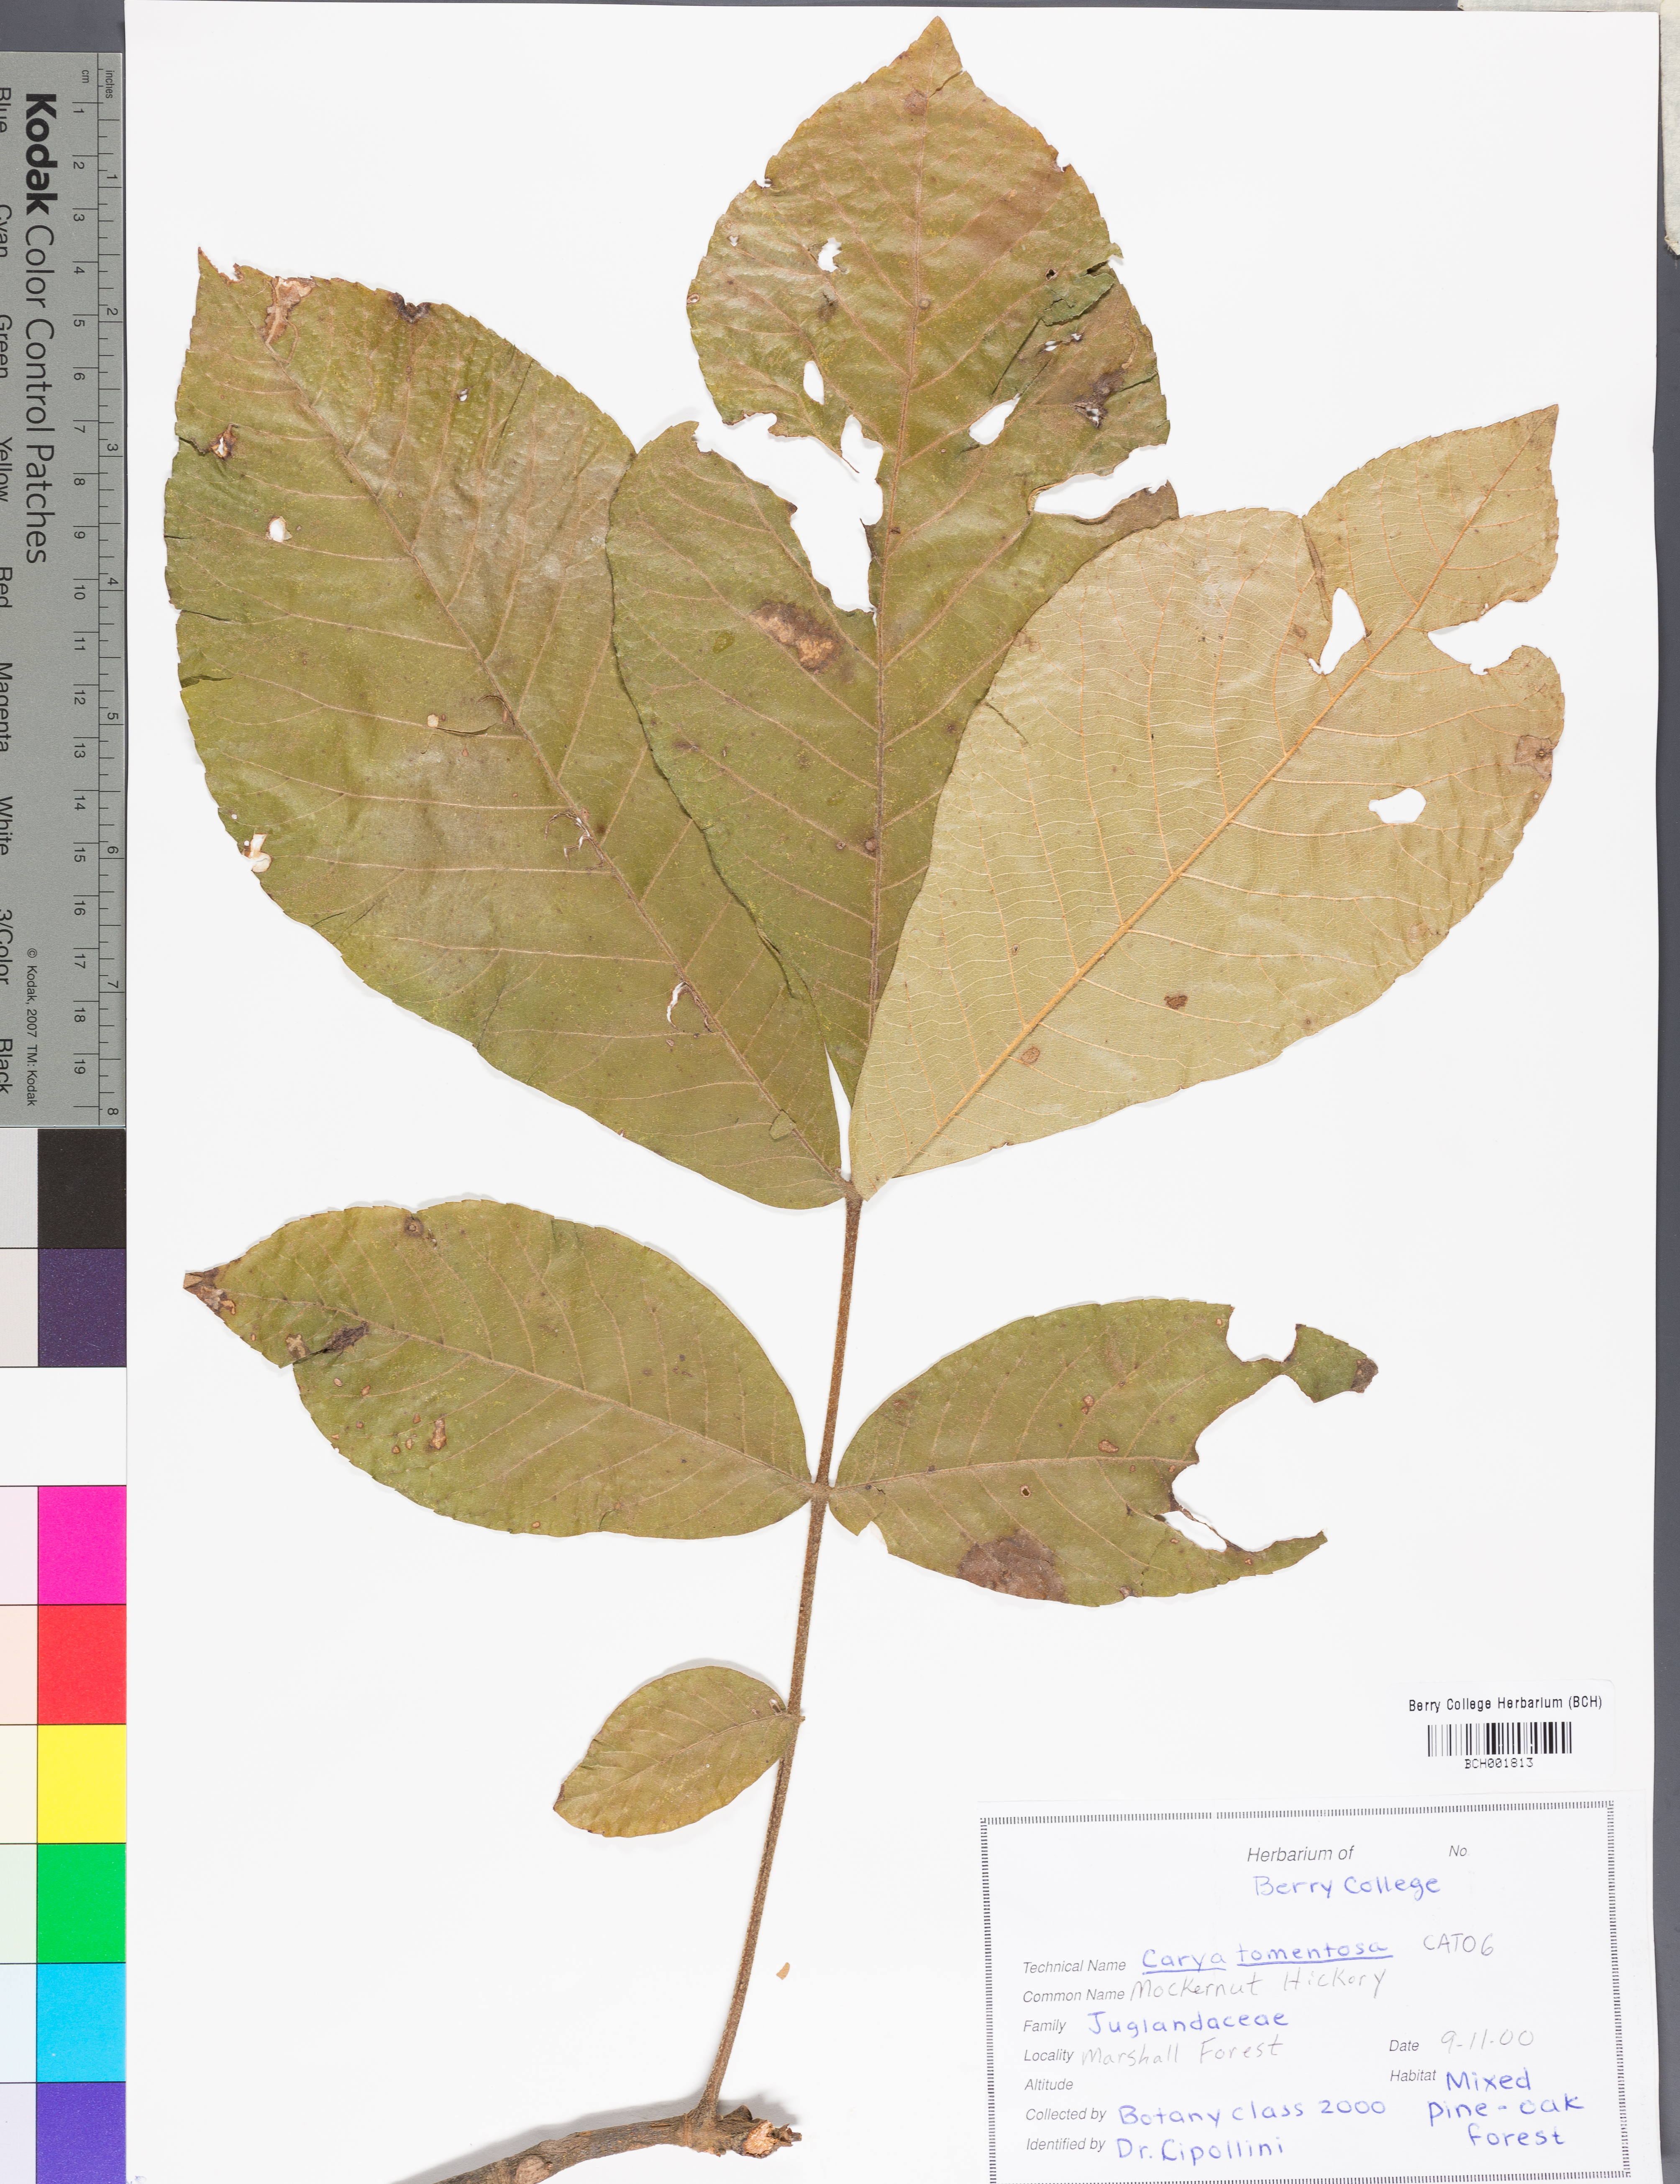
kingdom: Plantae
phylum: Tracheophyta
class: Magnoliopsida
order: Fagales
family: Juglandaceae
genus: Carya
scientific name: Carya alba
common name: Mockernut hickory
